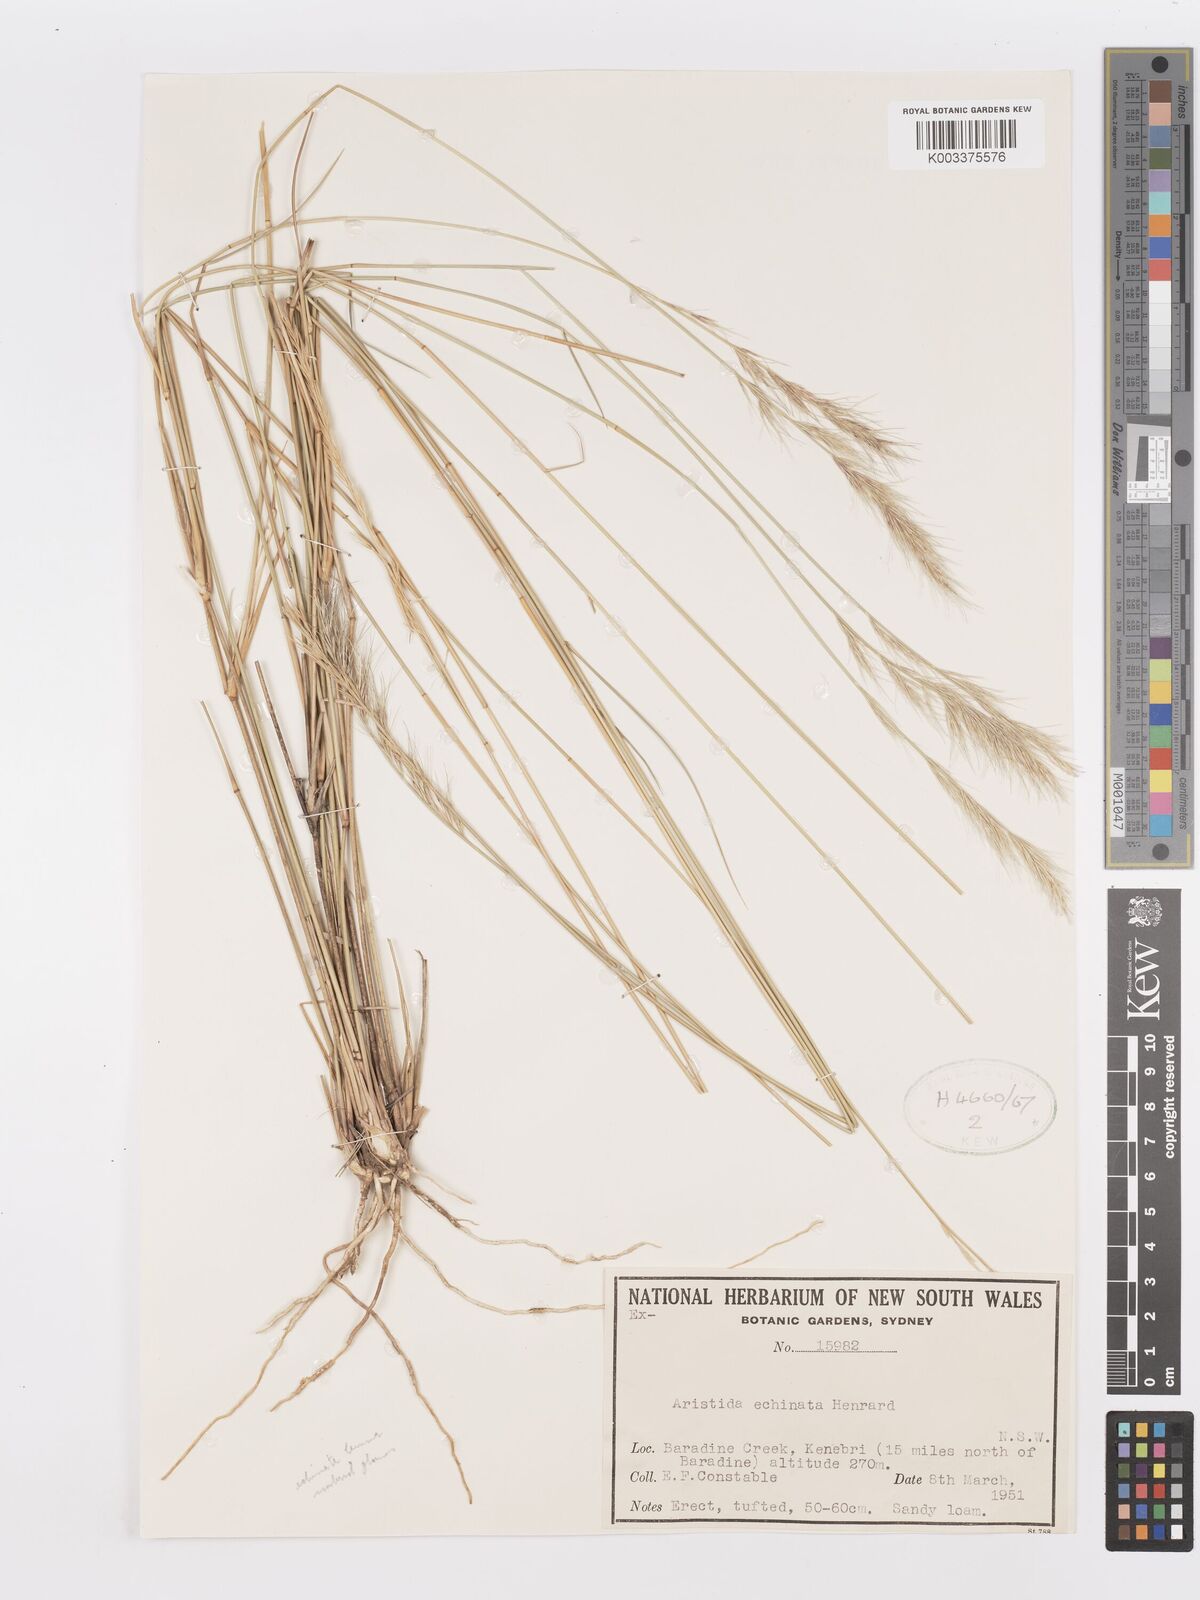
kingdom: Plantae
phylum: Tracheophyta
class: Liliopsida
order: Poales
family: Poaceae
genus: Aristida
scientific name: Aristida echinata
